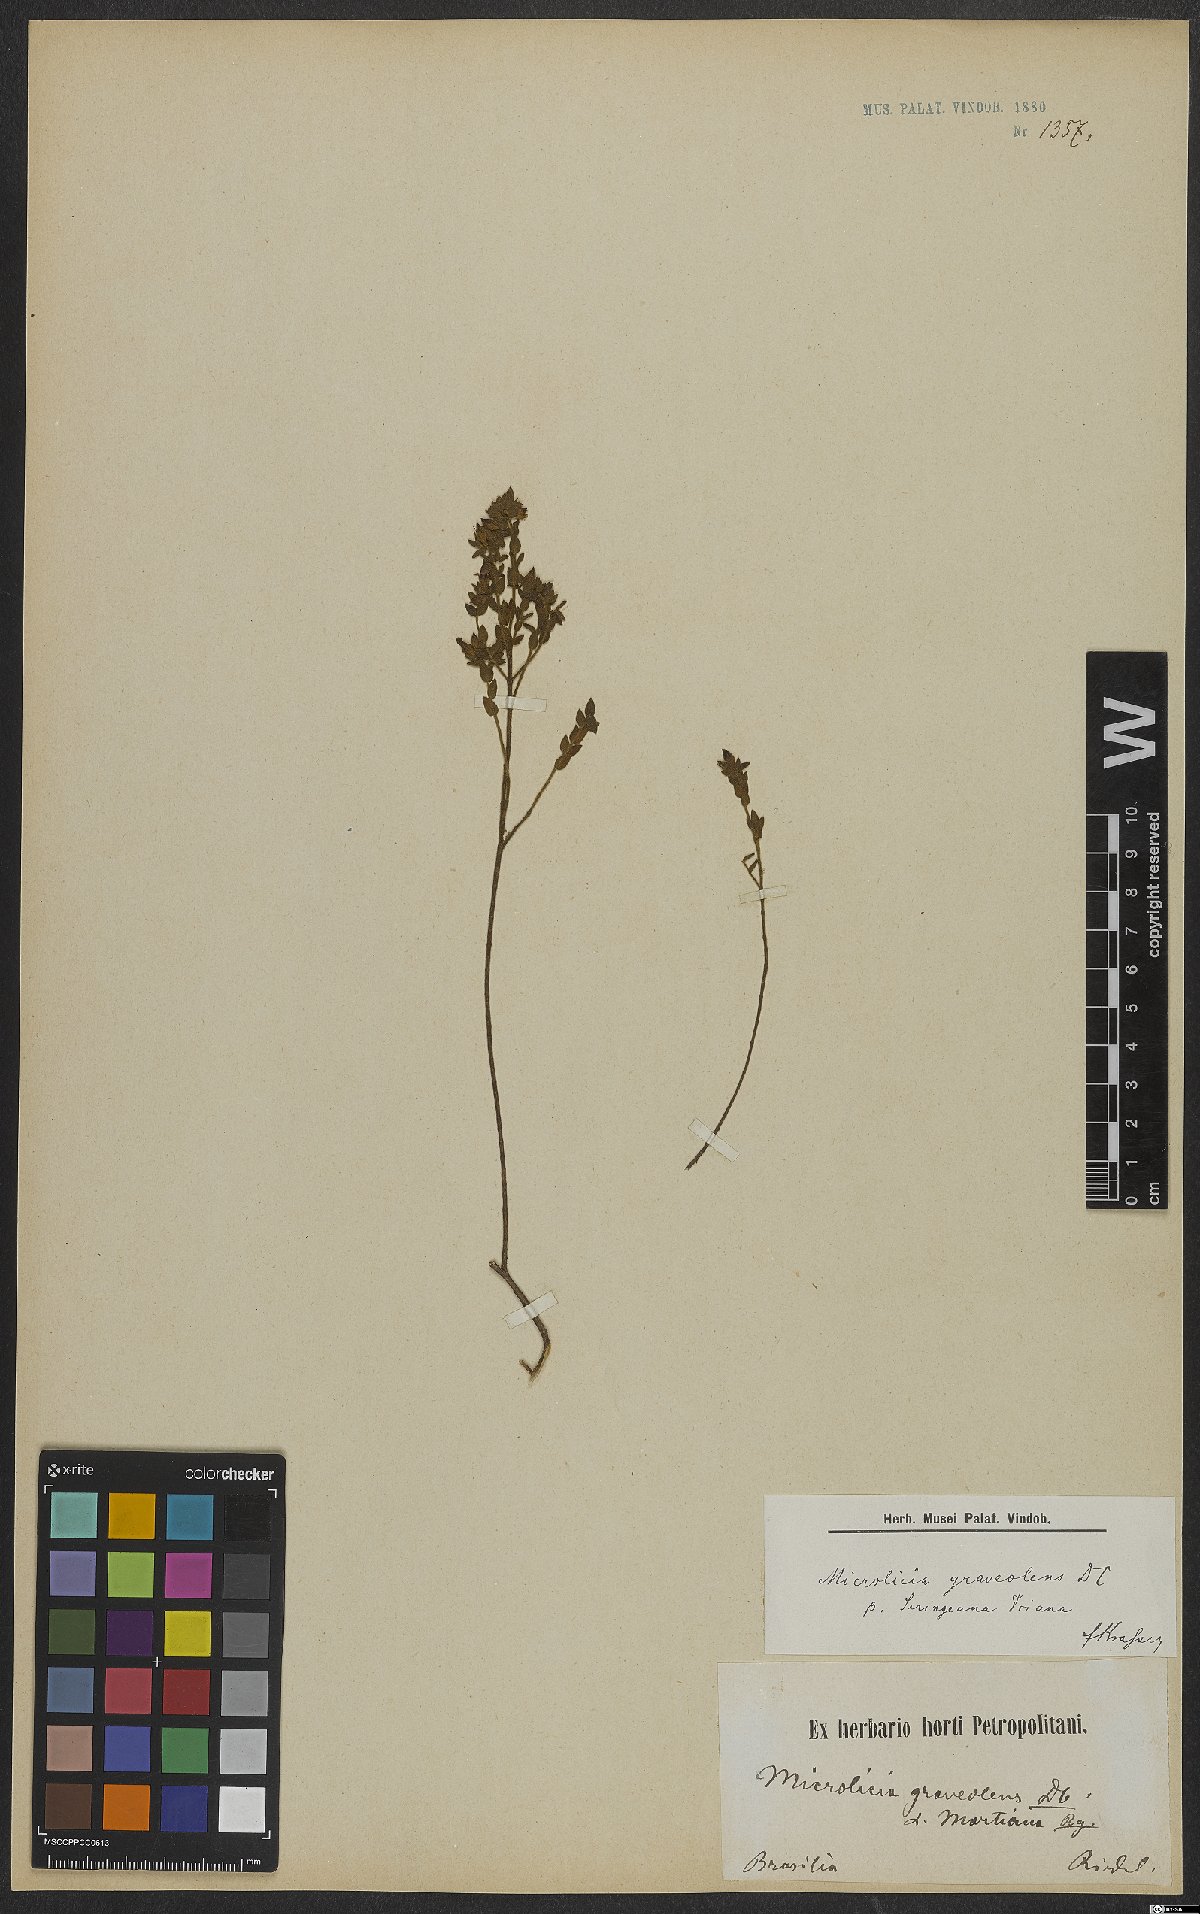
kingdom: Plantae
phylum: Tracheophyta
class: Magnoliopsida
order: Myrtales
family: Melastomataceae
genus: Microlicia
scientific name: Microlicia graveolens
